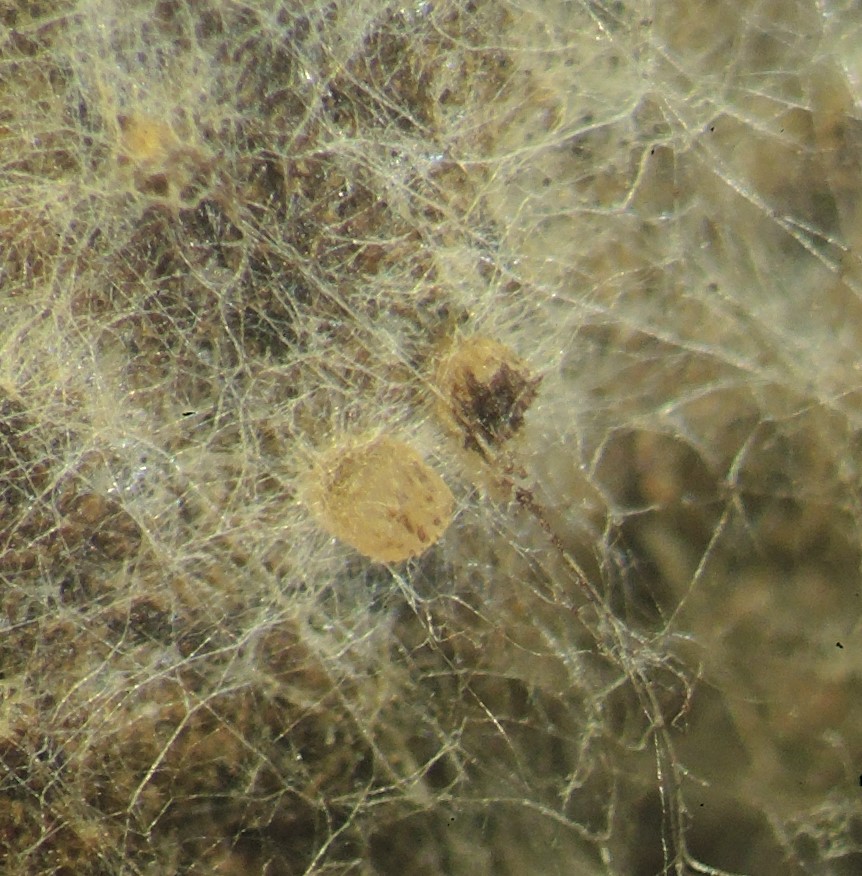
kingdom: Fungi
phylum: Ascomycota
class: Pezizomycetes
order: Pezizales
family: Ascobolaceae
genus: Ascobolus
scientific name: Ascobolus brantophilus
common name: gåselort-prikbæger
